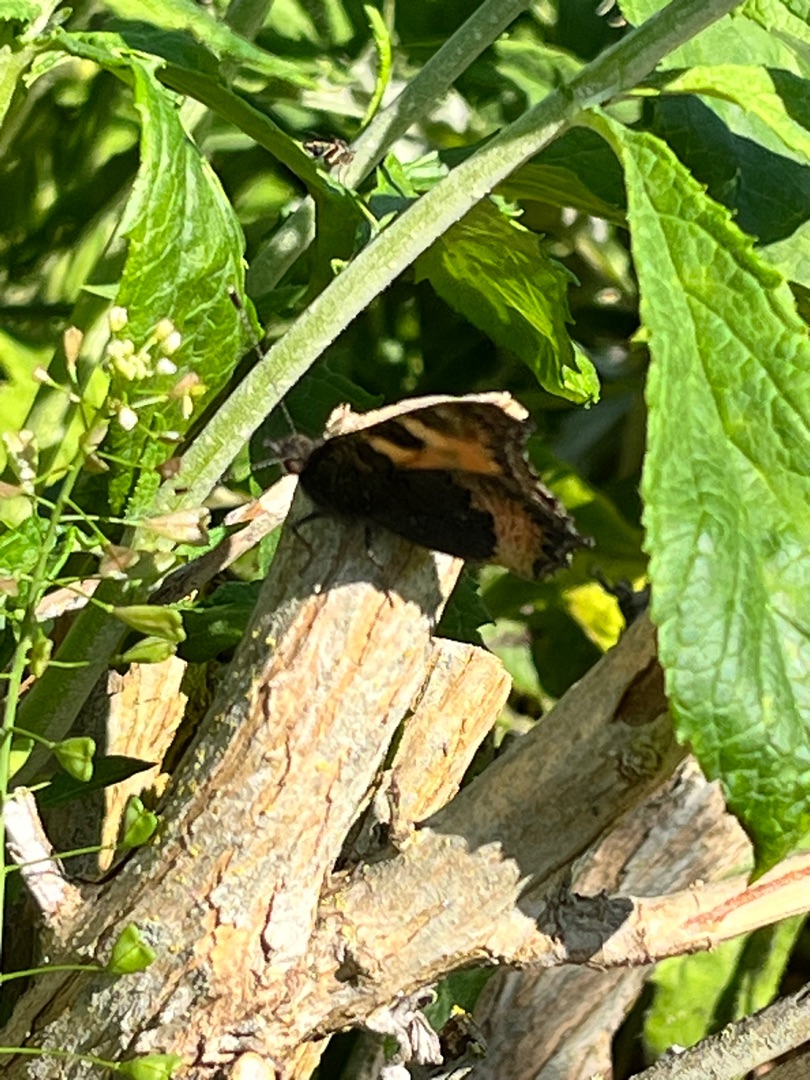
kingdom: Animalia
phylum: Arthropoda
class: Insecta
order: Lepidoptera
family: Nymphalidae
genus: Aglais
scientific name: Aglais urticae
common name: Nældens takvinge
